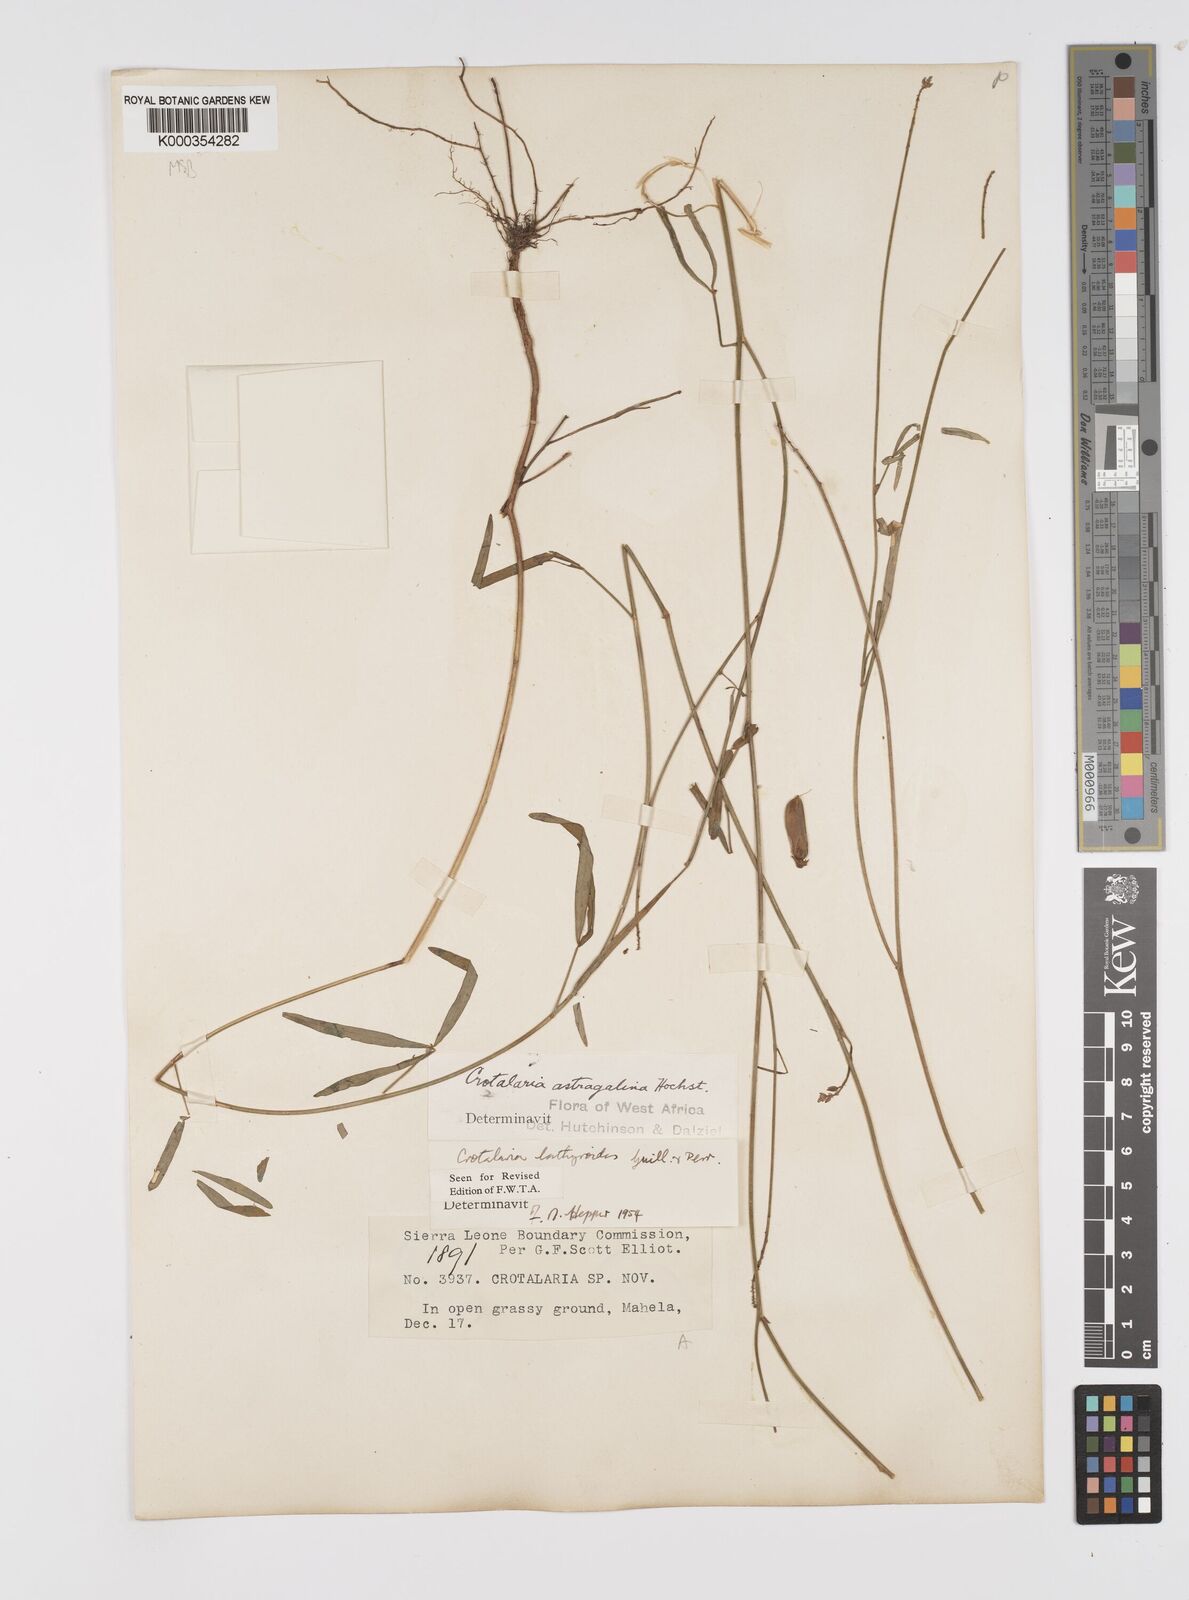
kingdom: Plantae
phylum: Tracheophyta
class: Magnoliopsida
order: Fabales
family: Fabaceae
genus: Crotalaria
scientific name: Crotalaria lathyroides
